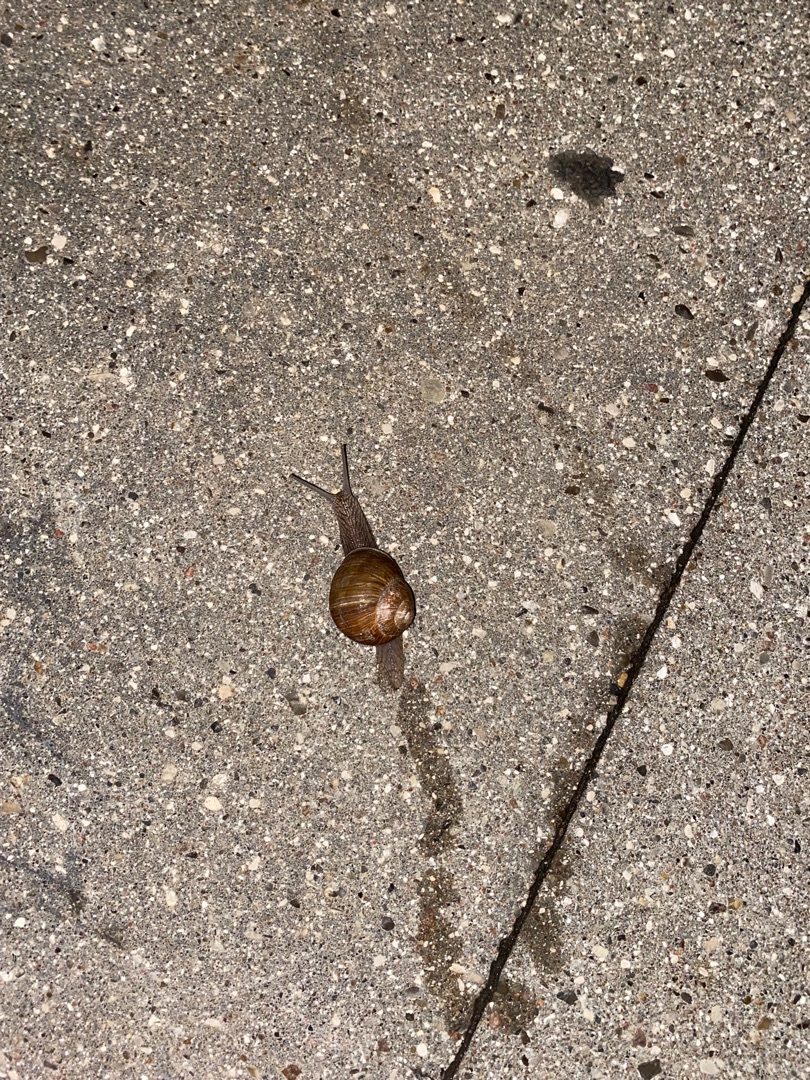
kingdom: Animalia
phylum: Mollusca
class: Gastropoda
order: Stylommatophora
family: Helicidae
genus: Helix
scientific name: Helix pomatia
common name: Vinbjergsnegl
